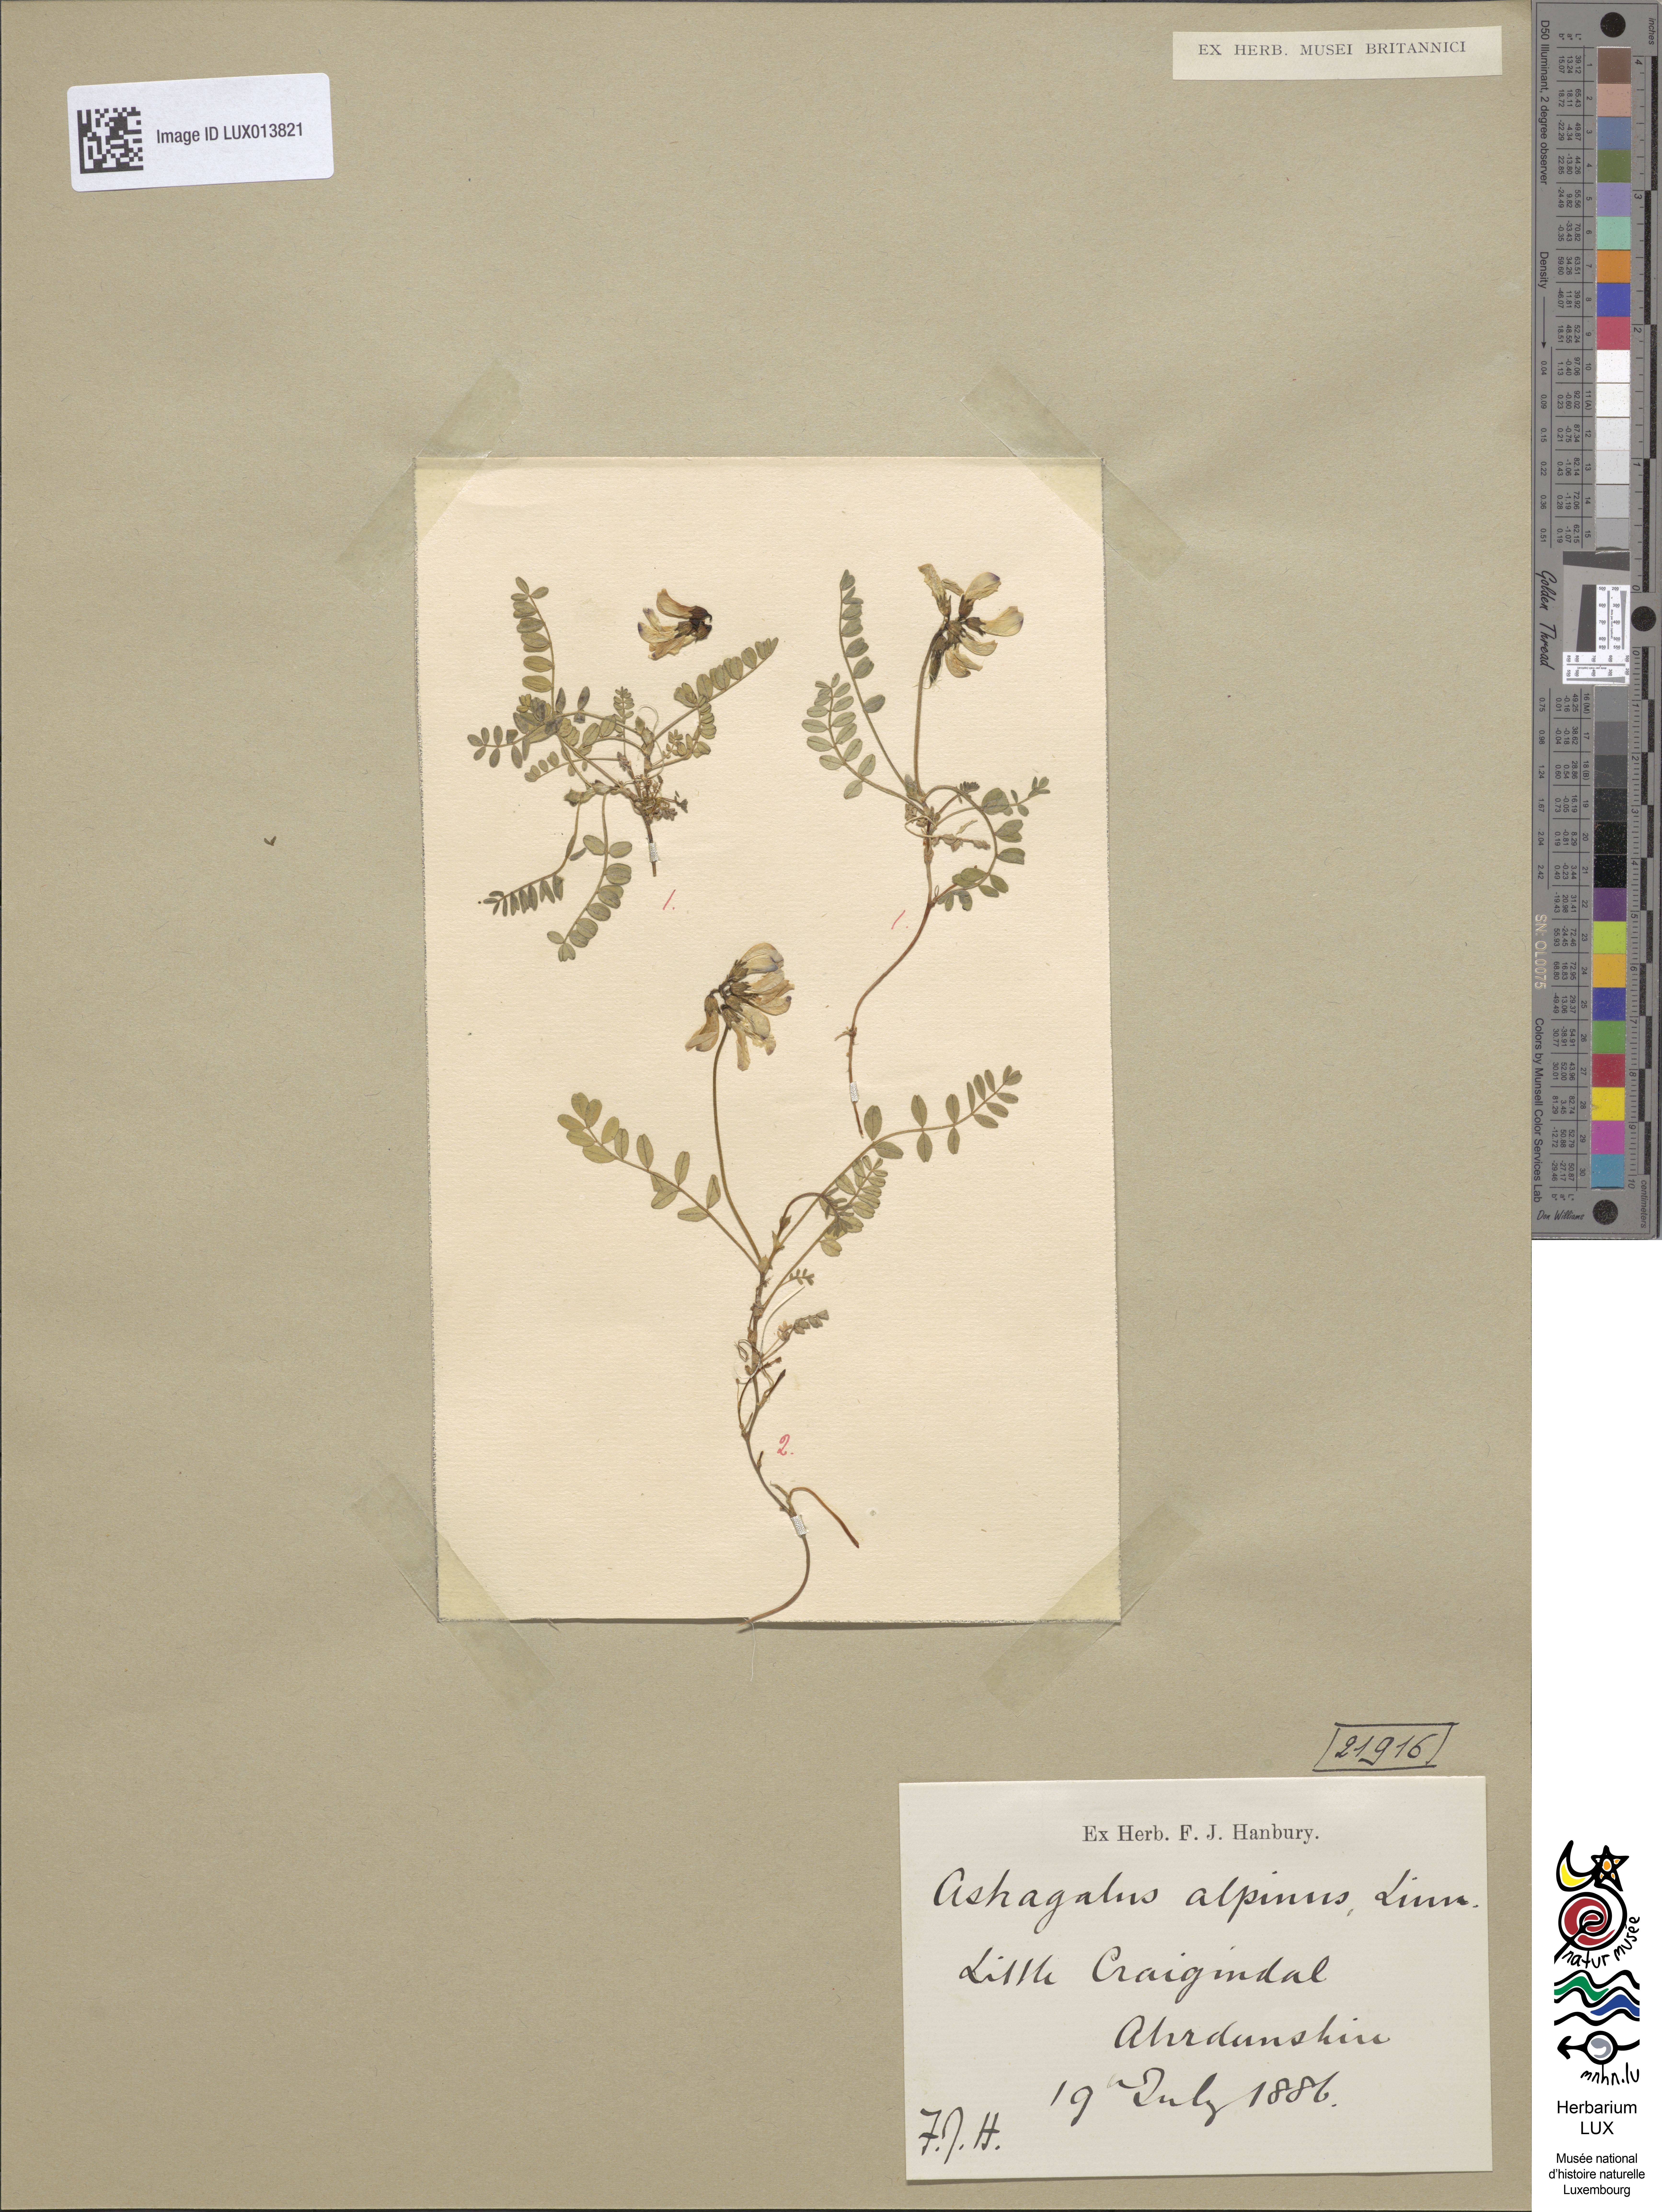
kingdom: Plantae
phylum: Tracheophyta
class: Magnoliopsida
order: Fabales
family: Fabaceae
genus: Astragalus
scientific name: Astragalus alpinus
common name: Alpine milk-vetch
